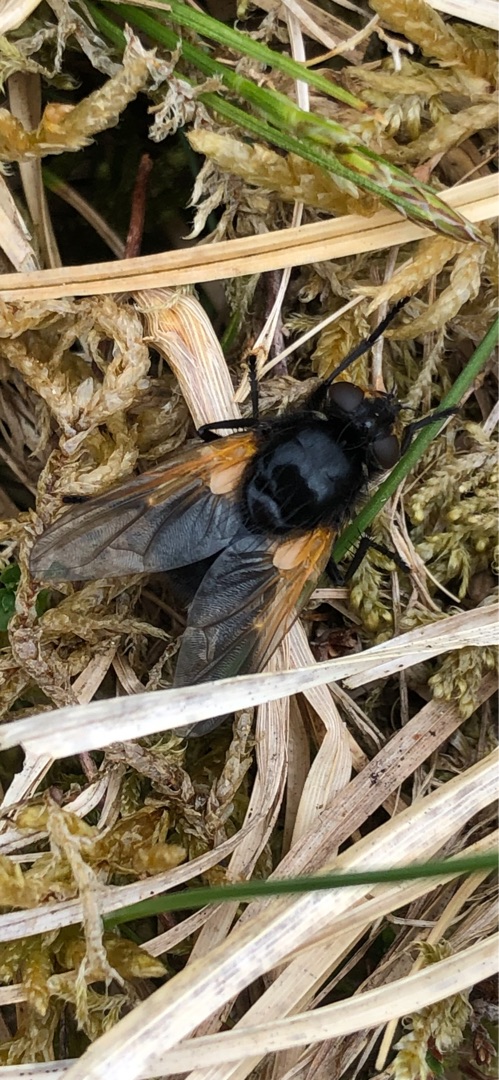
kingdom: Animalia
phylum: Arthropoda
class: Insecta
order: Diptera
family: Muscidae
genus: Mesembrina
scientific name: Mesembrina meridiana
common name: Gulvinget flue
